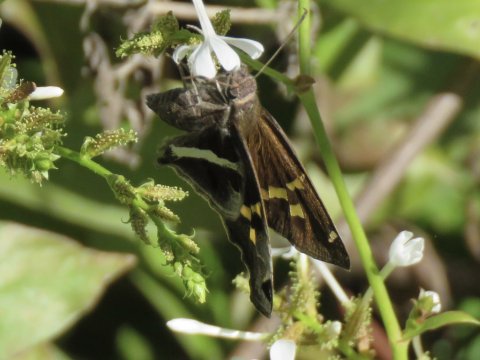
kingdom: Animalia
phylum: Arthropoda
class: Insecta
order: Lepidoptera
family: Hesperiidae
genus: Chioides
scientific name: Chioides catillus
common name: White-striped Longtail
